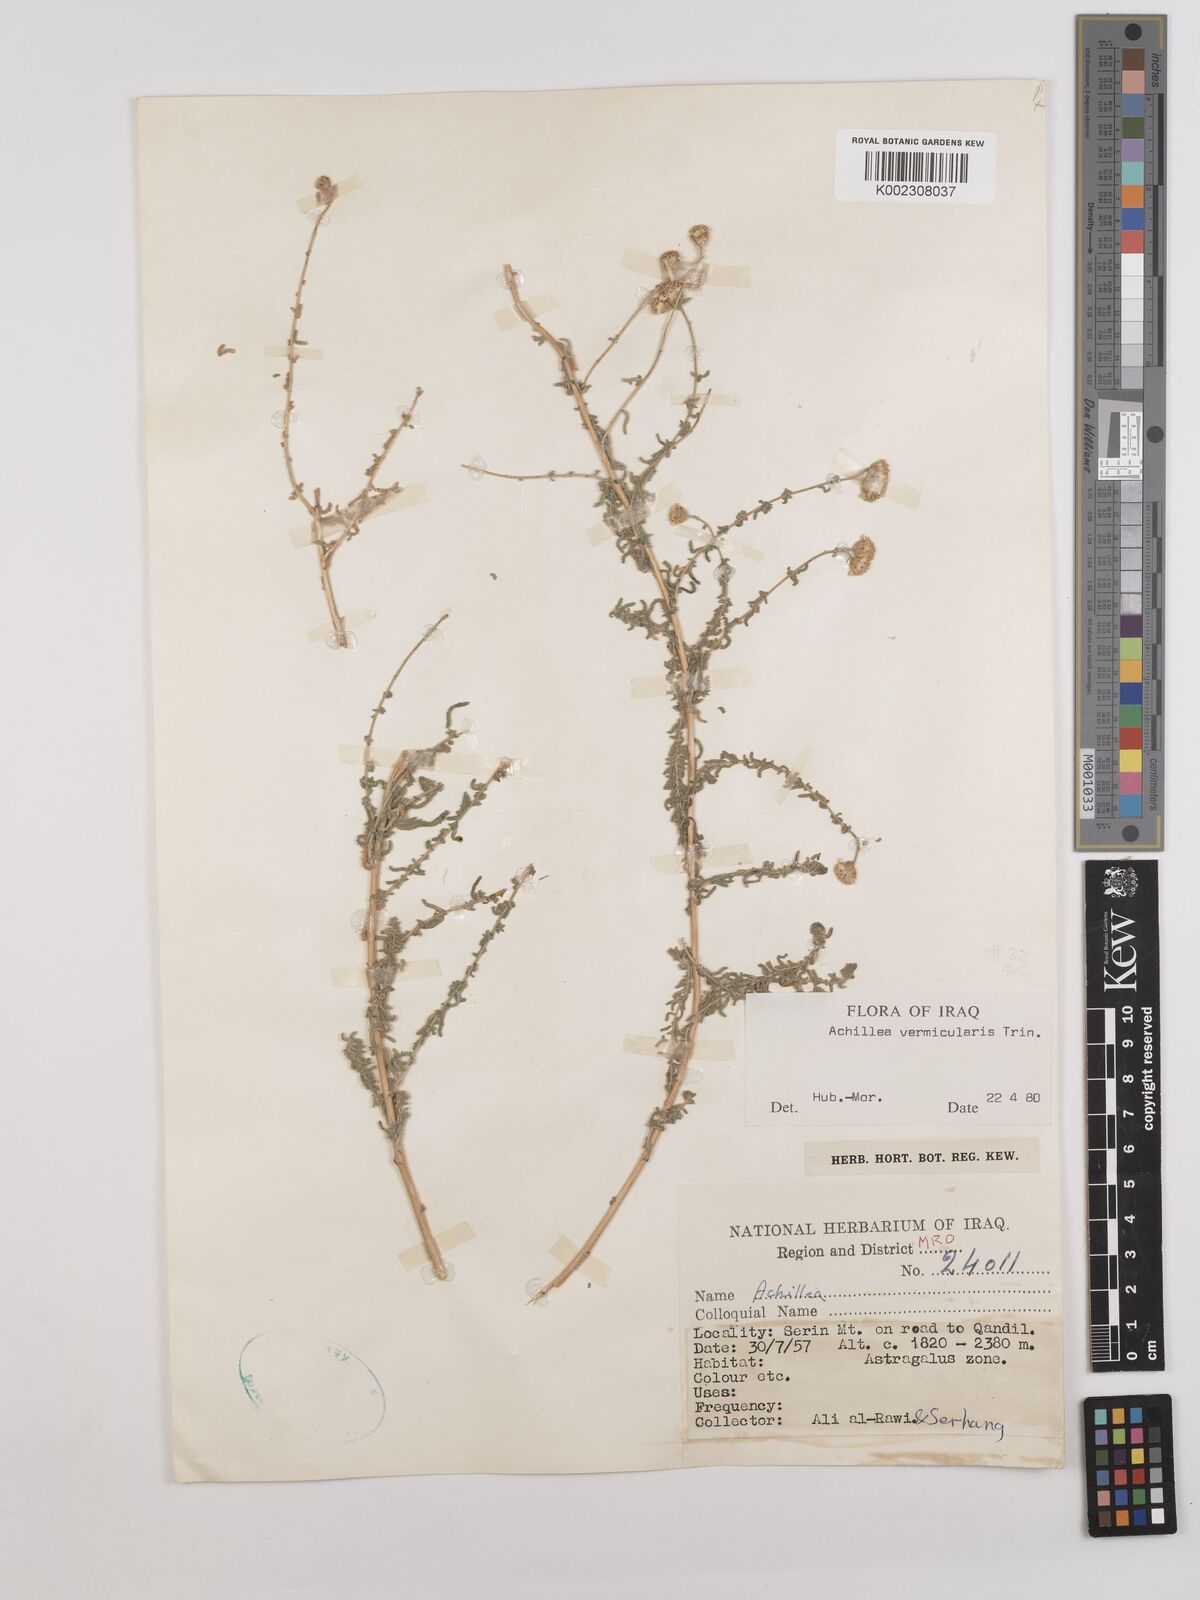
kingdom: Plantae
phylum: Tracheophyta
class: Magnoliopsida
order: Asterales
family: Asteraceae
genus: Achillea
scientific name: Achillea vermicularis
